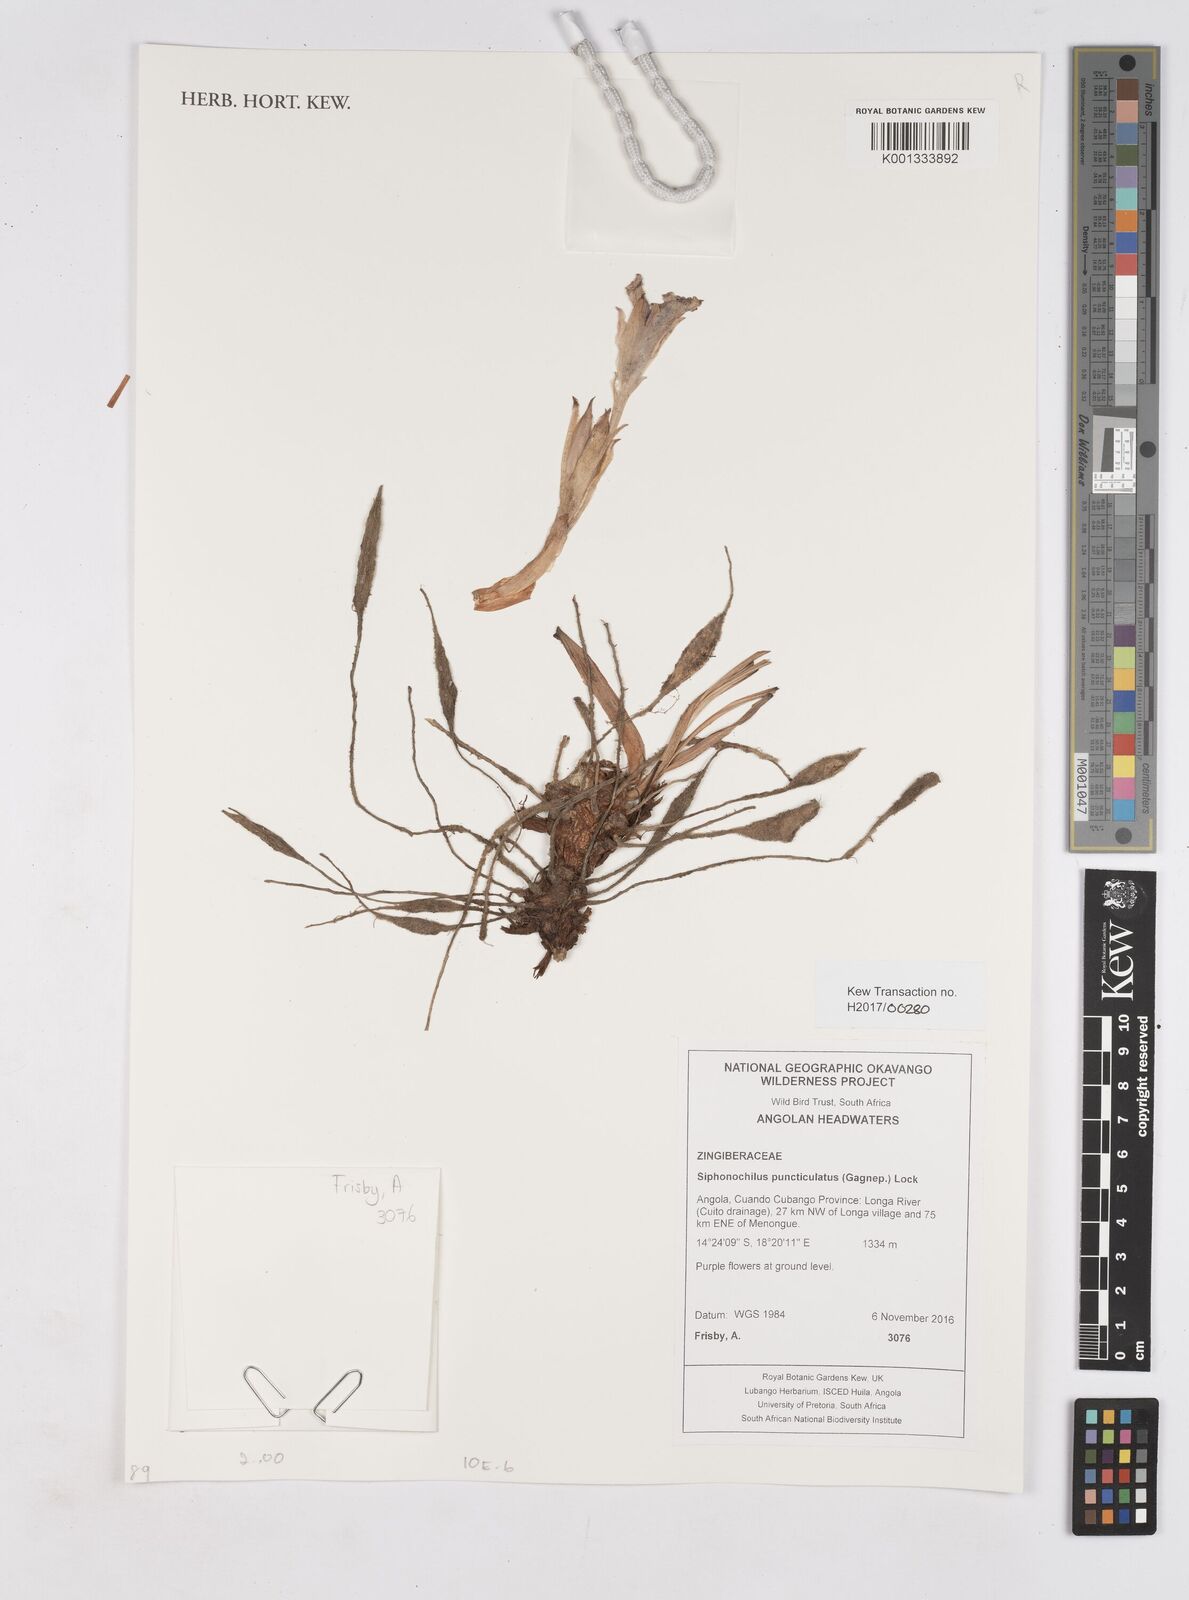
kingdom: Plantae
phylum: Tracheophyta
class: Liliopsida
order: Zingiberales
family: Zingiberaceae
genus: Siphonochilus
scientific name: Siphonochilus puncticulatus
